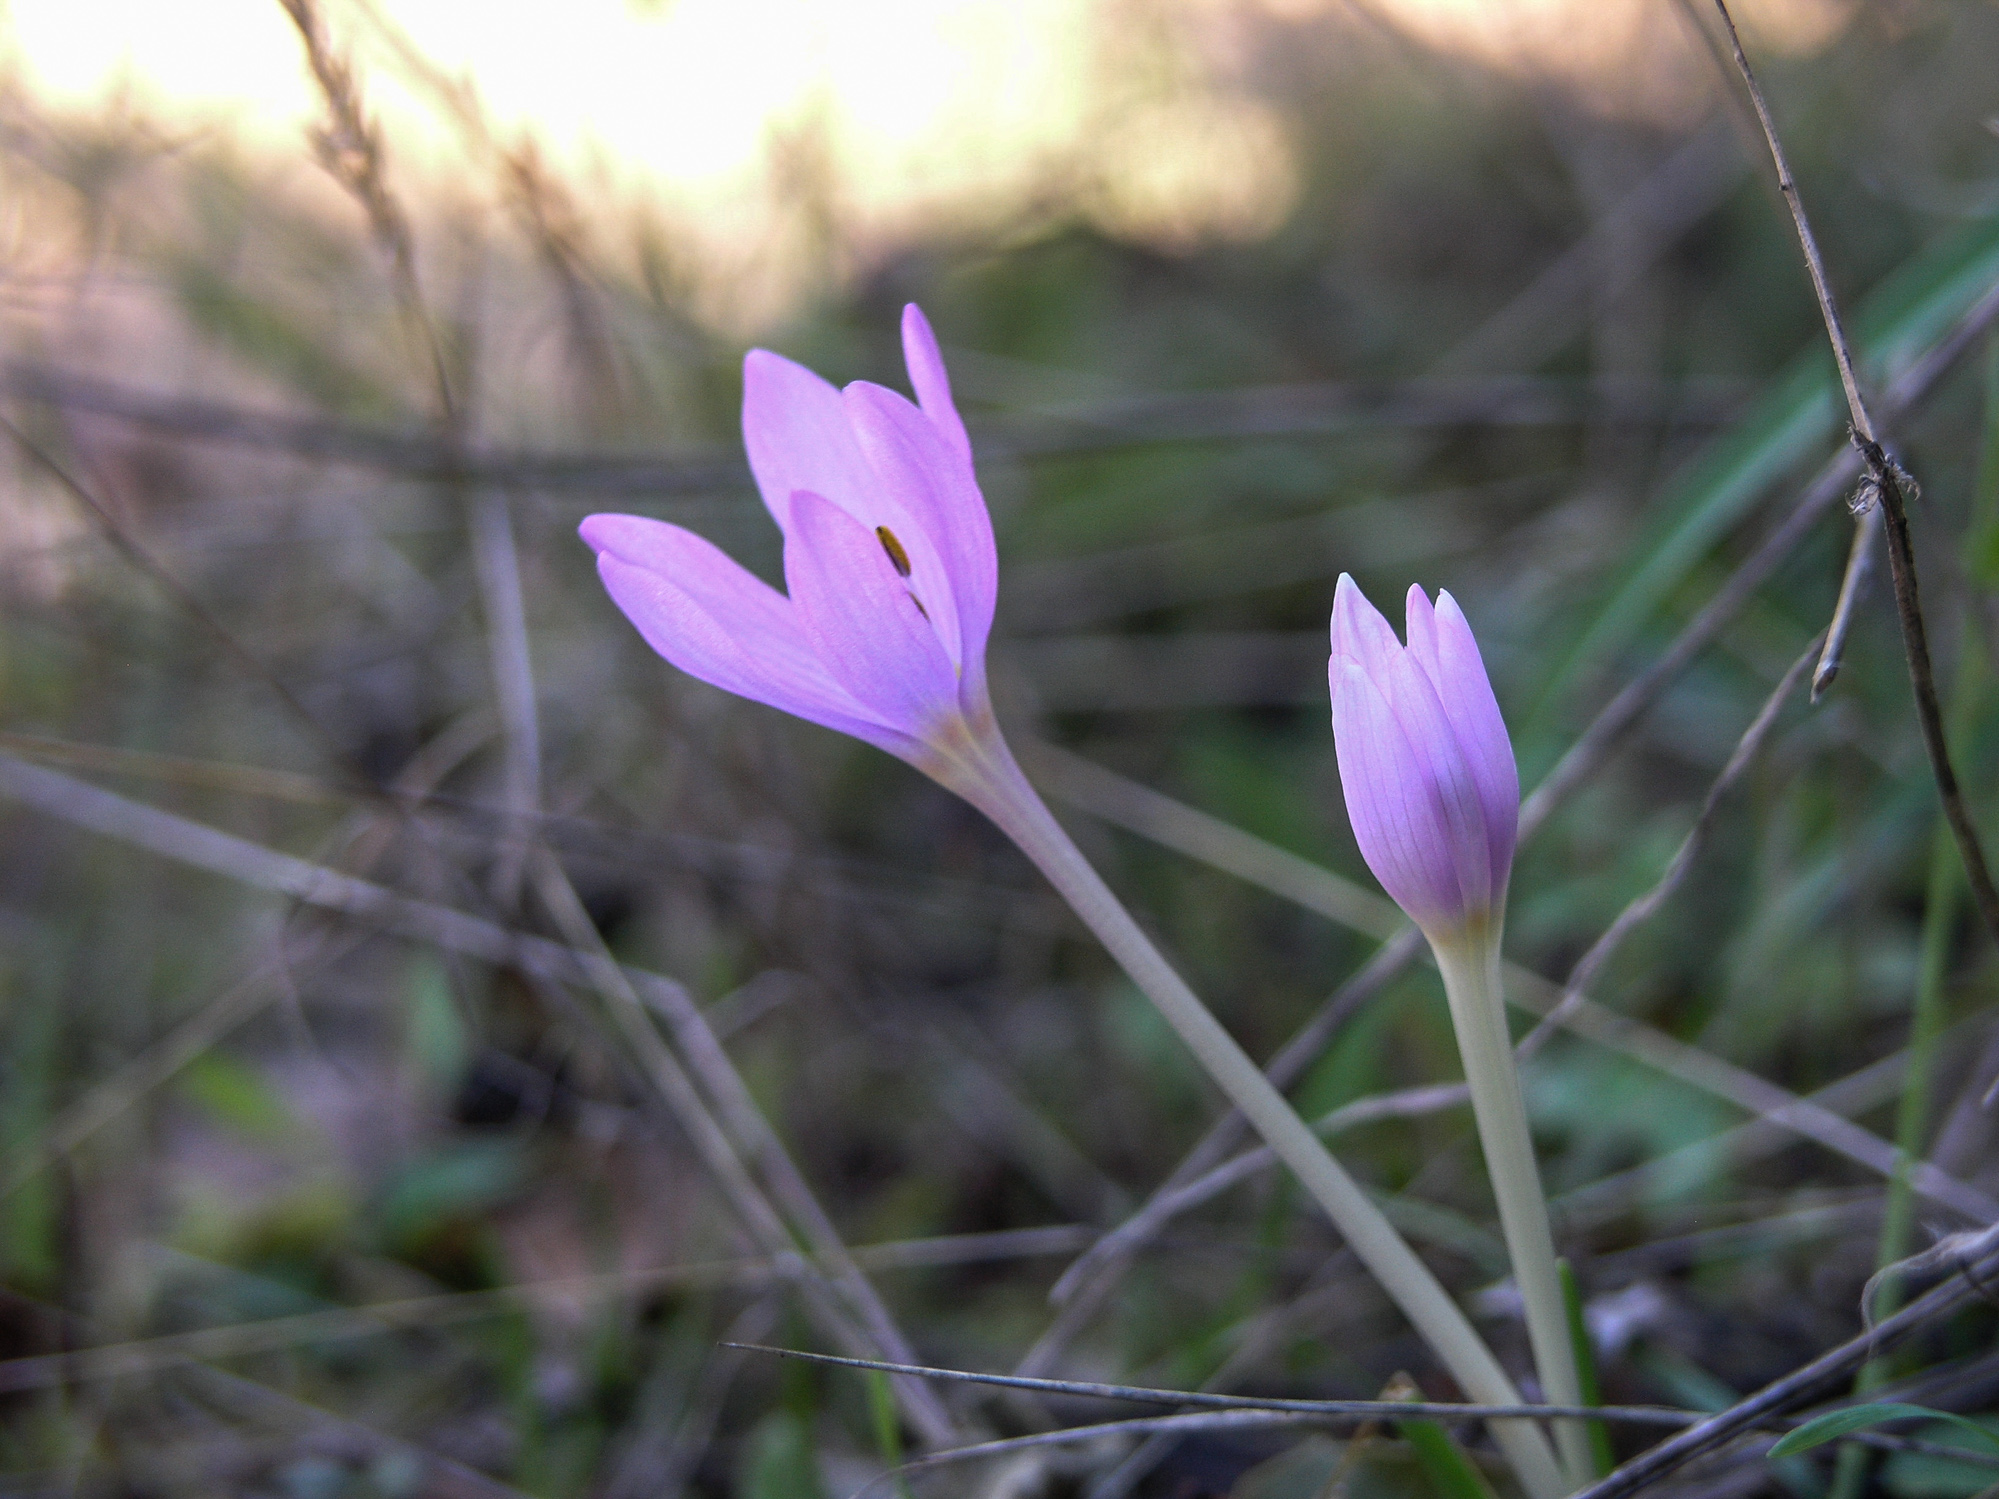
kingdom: Plantae
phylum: Tracheophyta
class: Liliopsida
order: Liliales
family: Colchicaceae
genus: Colchicum
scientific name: Colchicum cupanii
